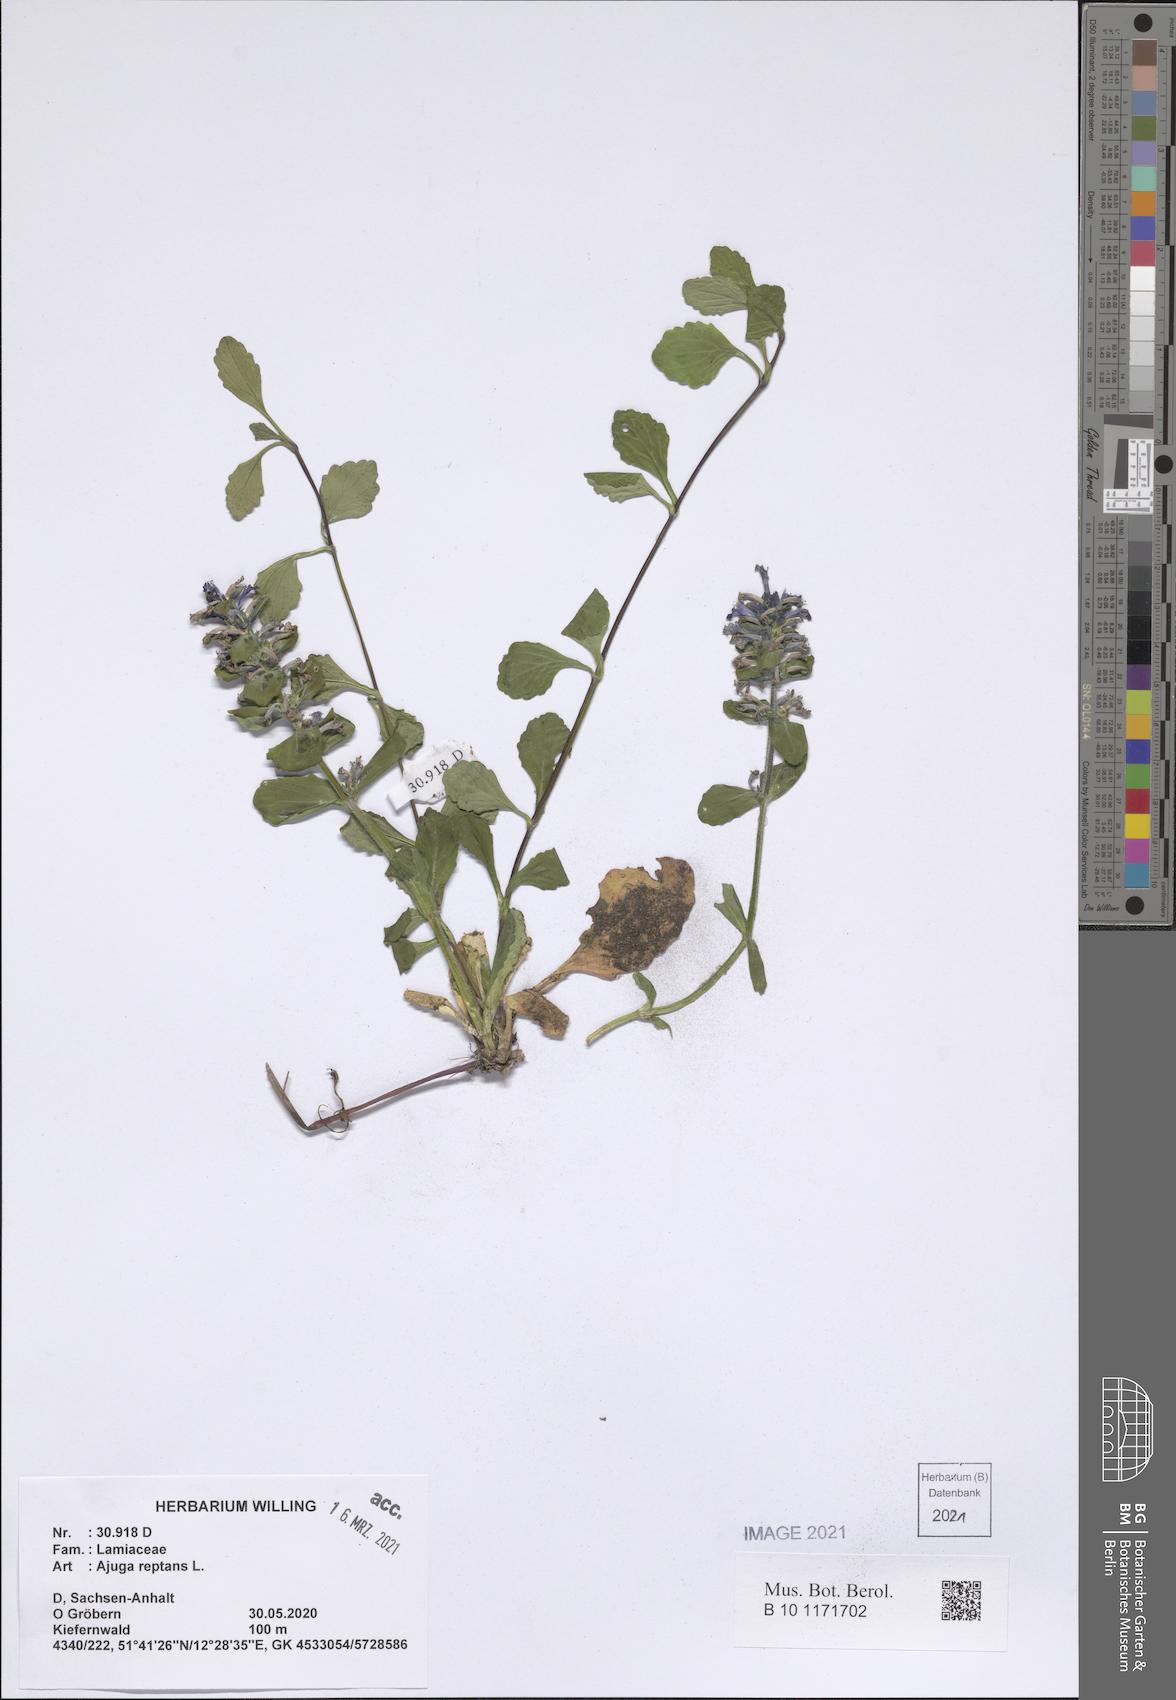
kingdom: Plantae
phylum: Tracheophyta
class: Magnoliopsida
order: Lamiales
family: Lamiaceae
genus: Ajuga
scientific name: Ajuga reptans
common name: Bugle
